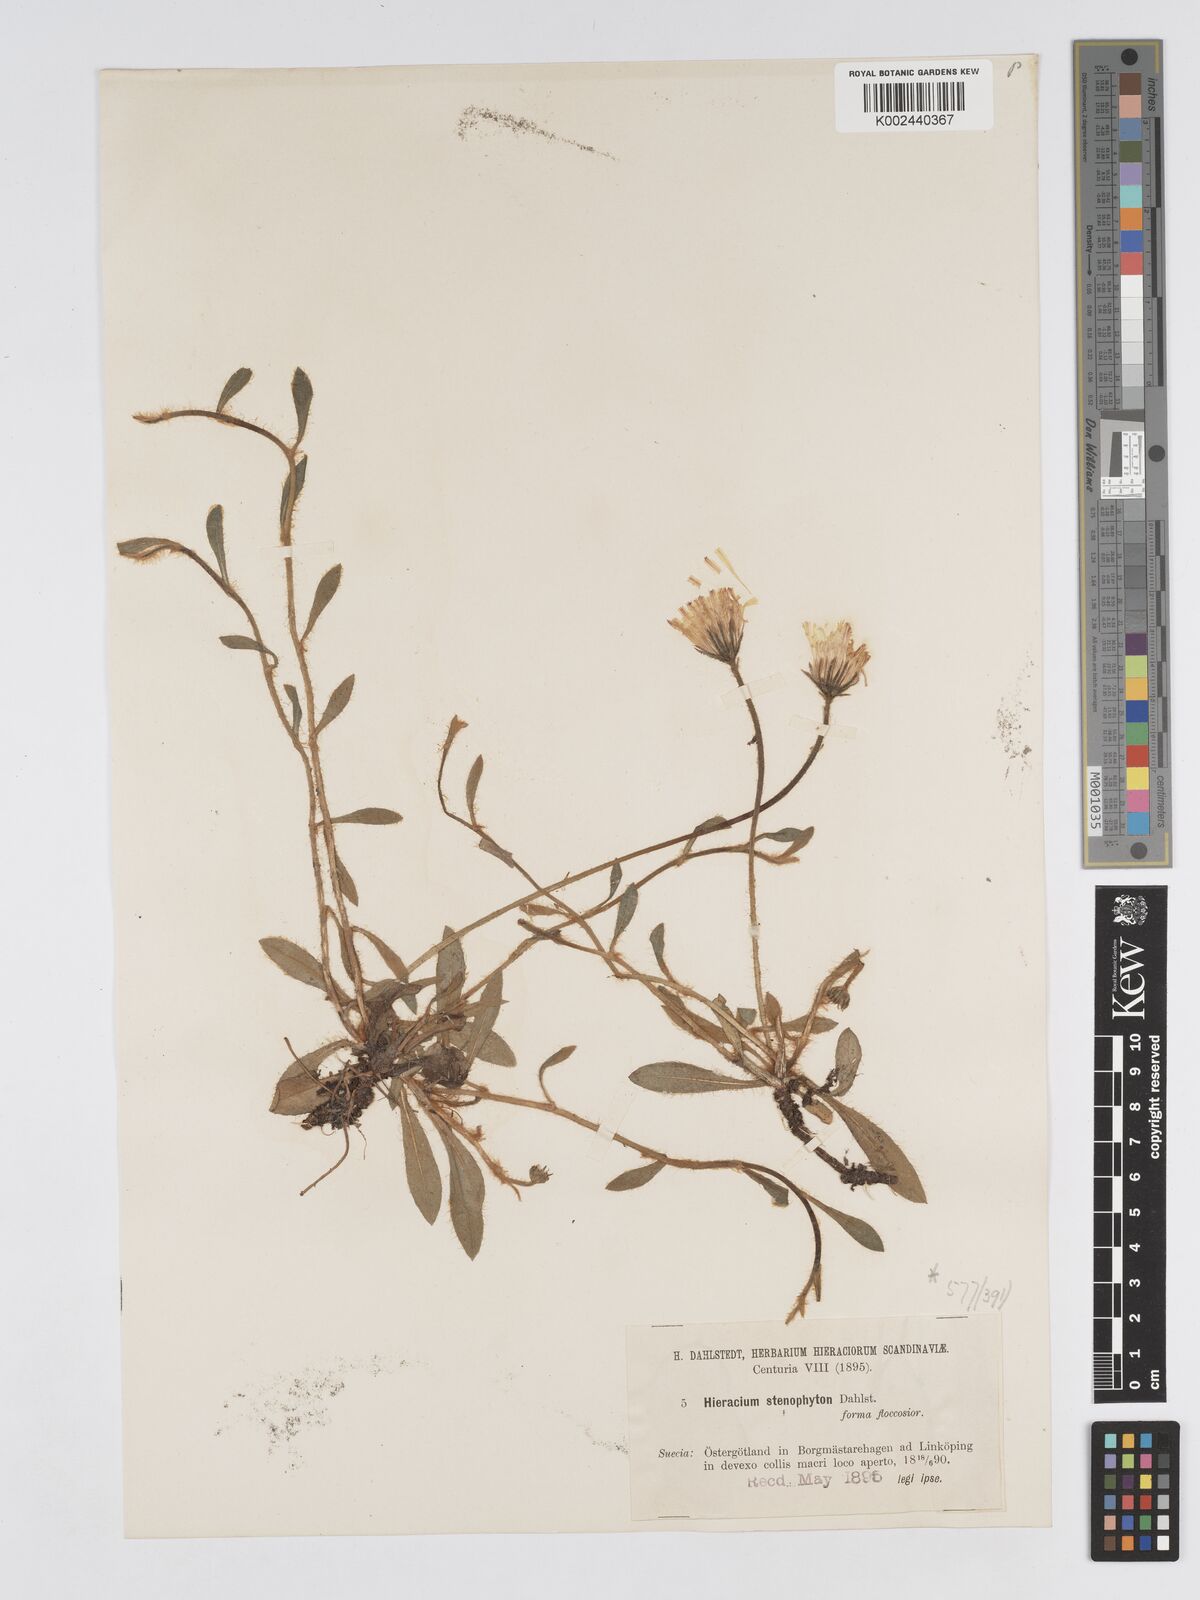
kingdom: Plantae
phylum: Tracheophyta
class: Magnoliopsida
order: Asterales
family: Asteraceae
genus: Pilosella
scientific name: Pilosella officinarum
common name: Mouse-ear hawkweed
